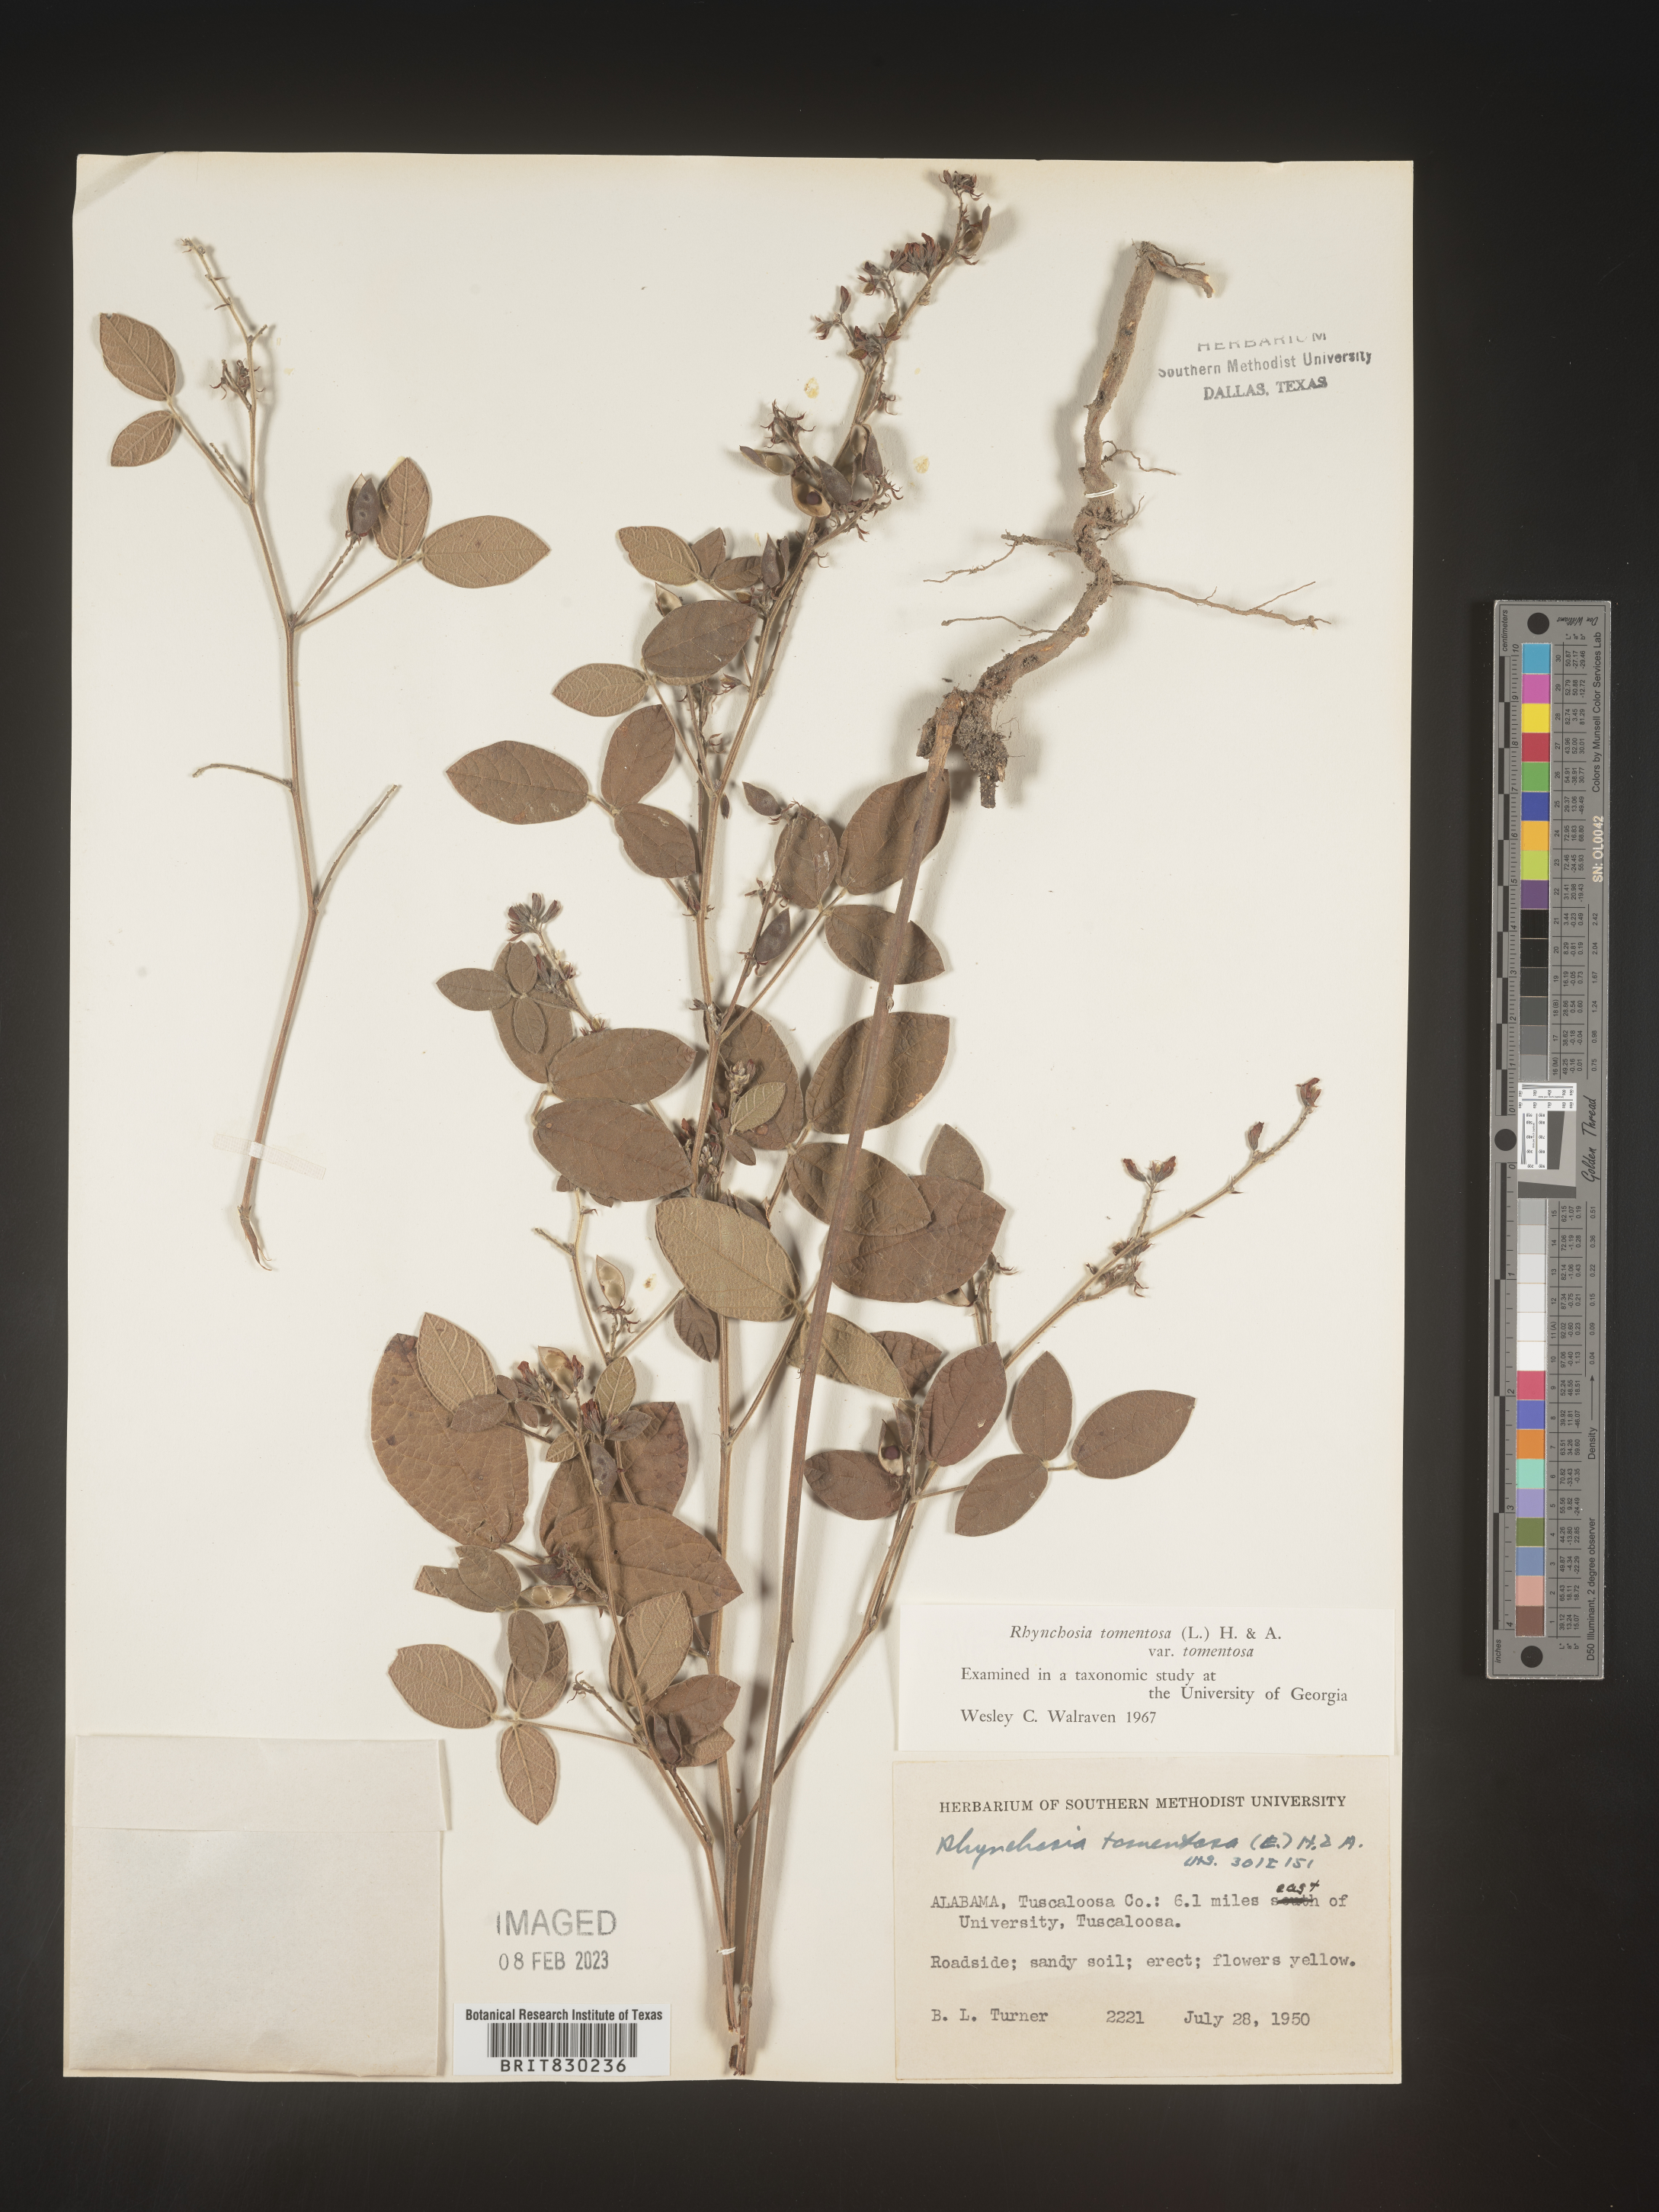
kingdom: Plantae
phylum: Tracheophyta
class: Magnoliopsida
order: Fabales
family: Fabaceae
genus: Rhynchosia
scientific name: Rhynchosia rothii
